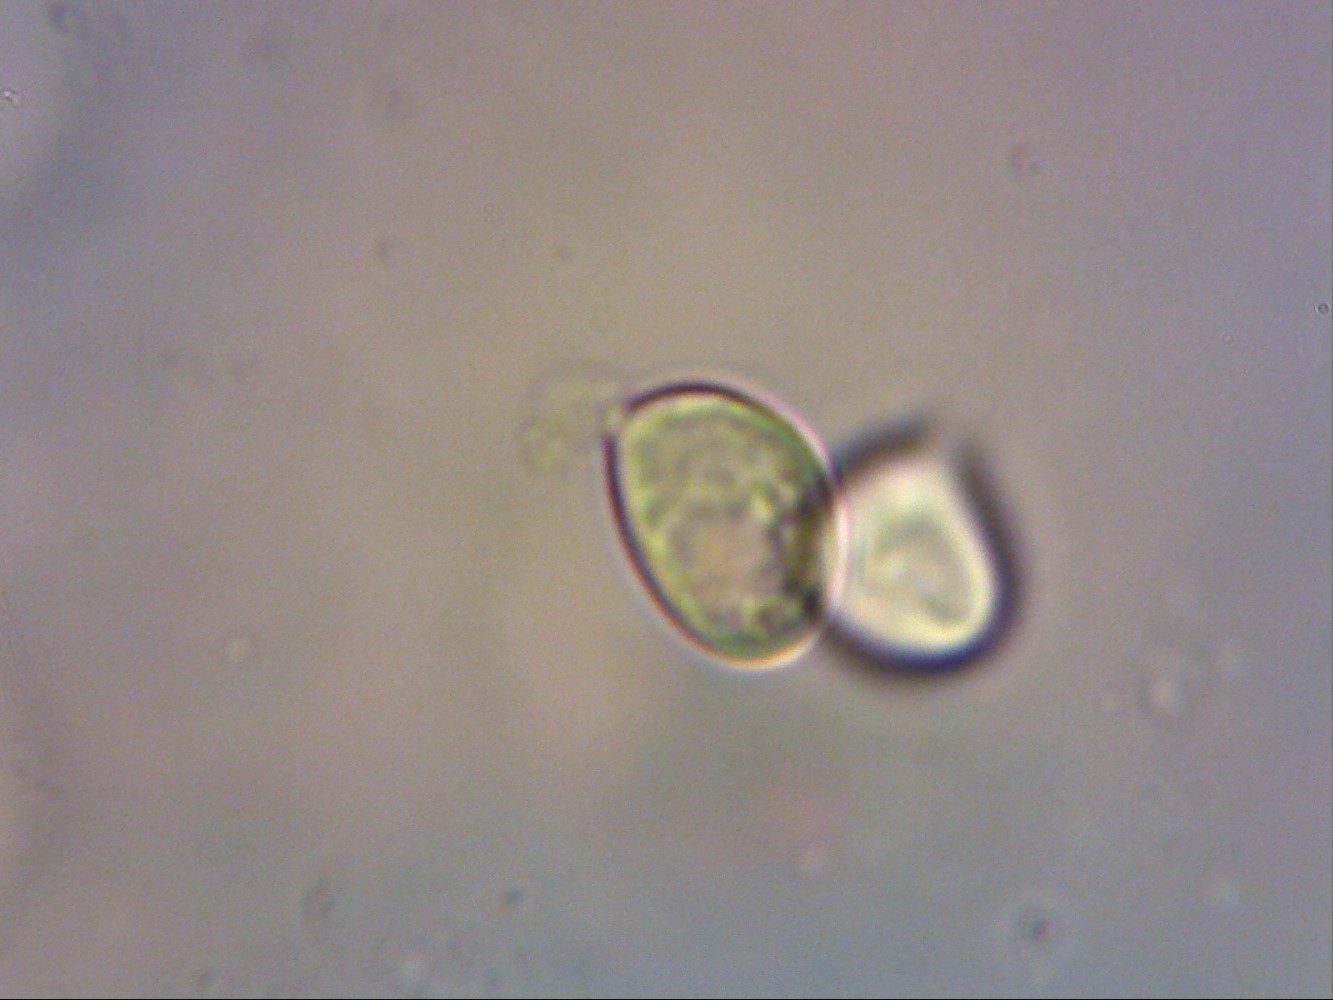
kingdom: Fungi
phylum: Basidiomycota
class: Agaricomycetes
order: Cantharellales
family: Hydnaceae
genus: Hydnum
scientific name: Hydnum repandum
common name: almindelig pigsvamp
